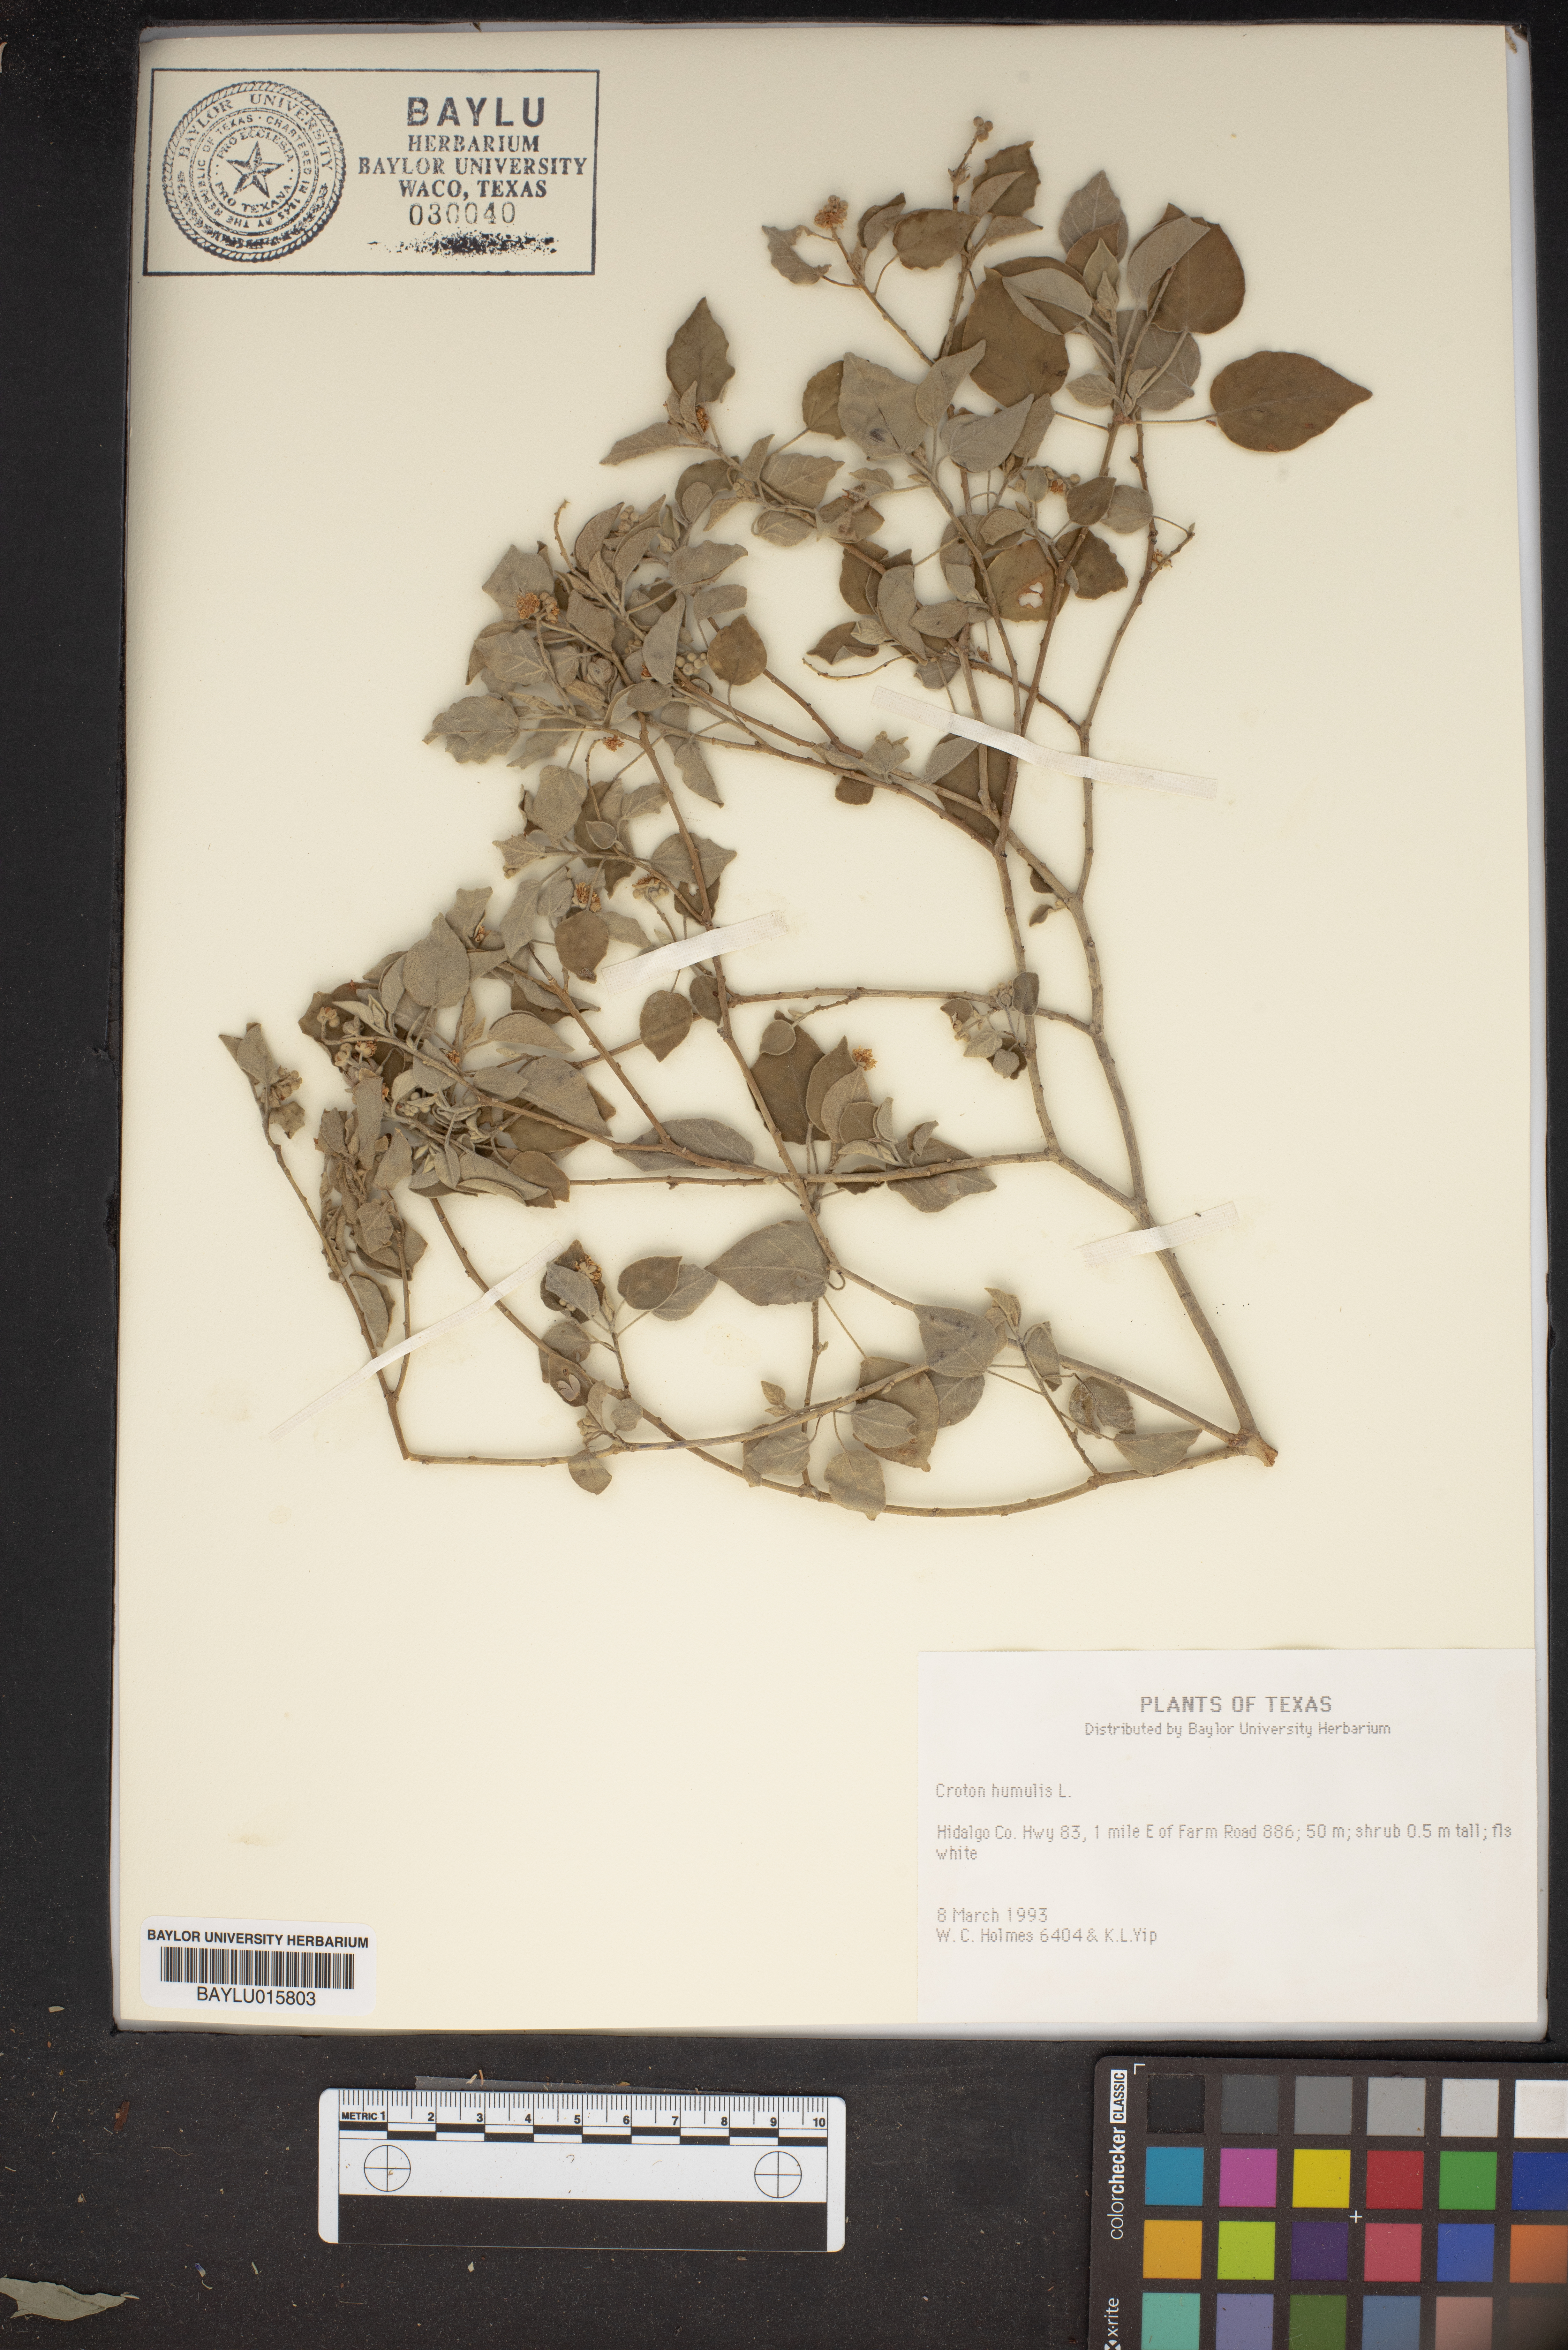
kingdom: Plantae
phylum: Tracheophyta
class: Magnoliopsida
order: Malpighiales
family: Euphorbiaceae
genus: Croton
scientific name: Croton humilis
